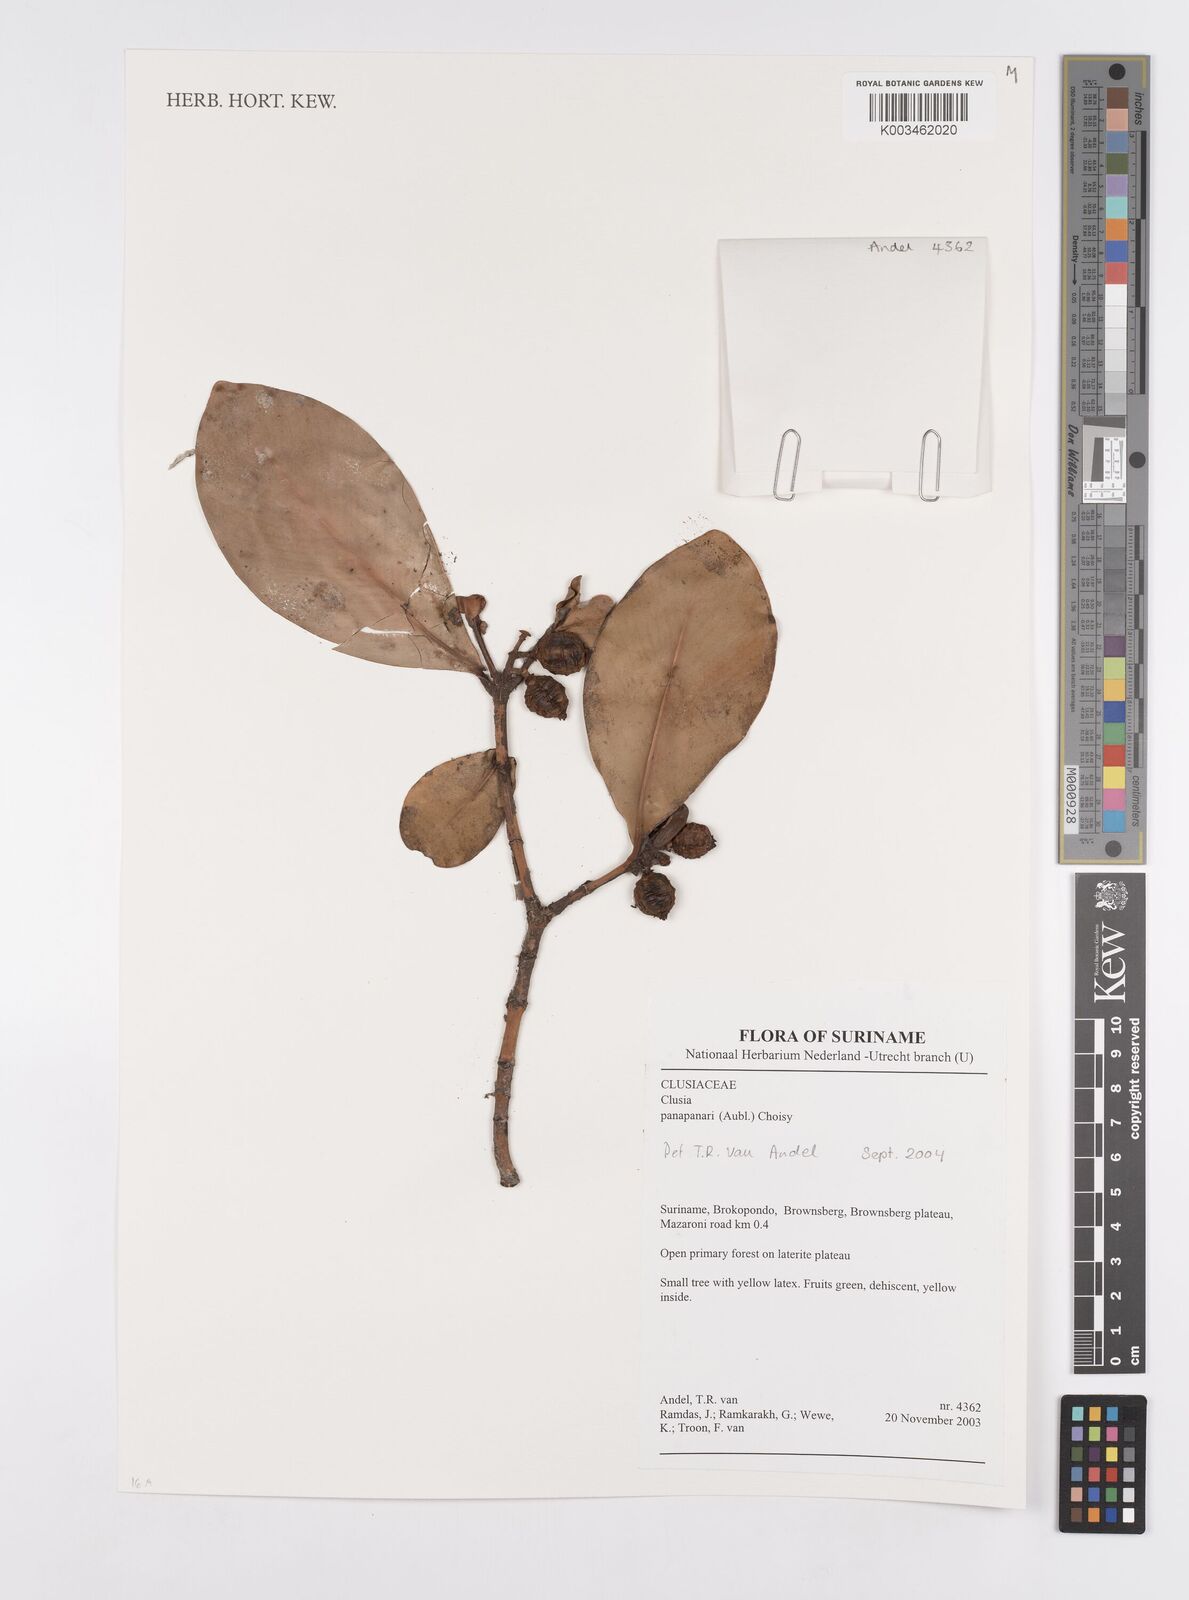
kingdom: Plantae
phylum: Tracheophyta
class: Magnoliopsida
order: Malpighiales
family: Clusiaceae
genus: Clusia
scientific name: Clusia panapanari
